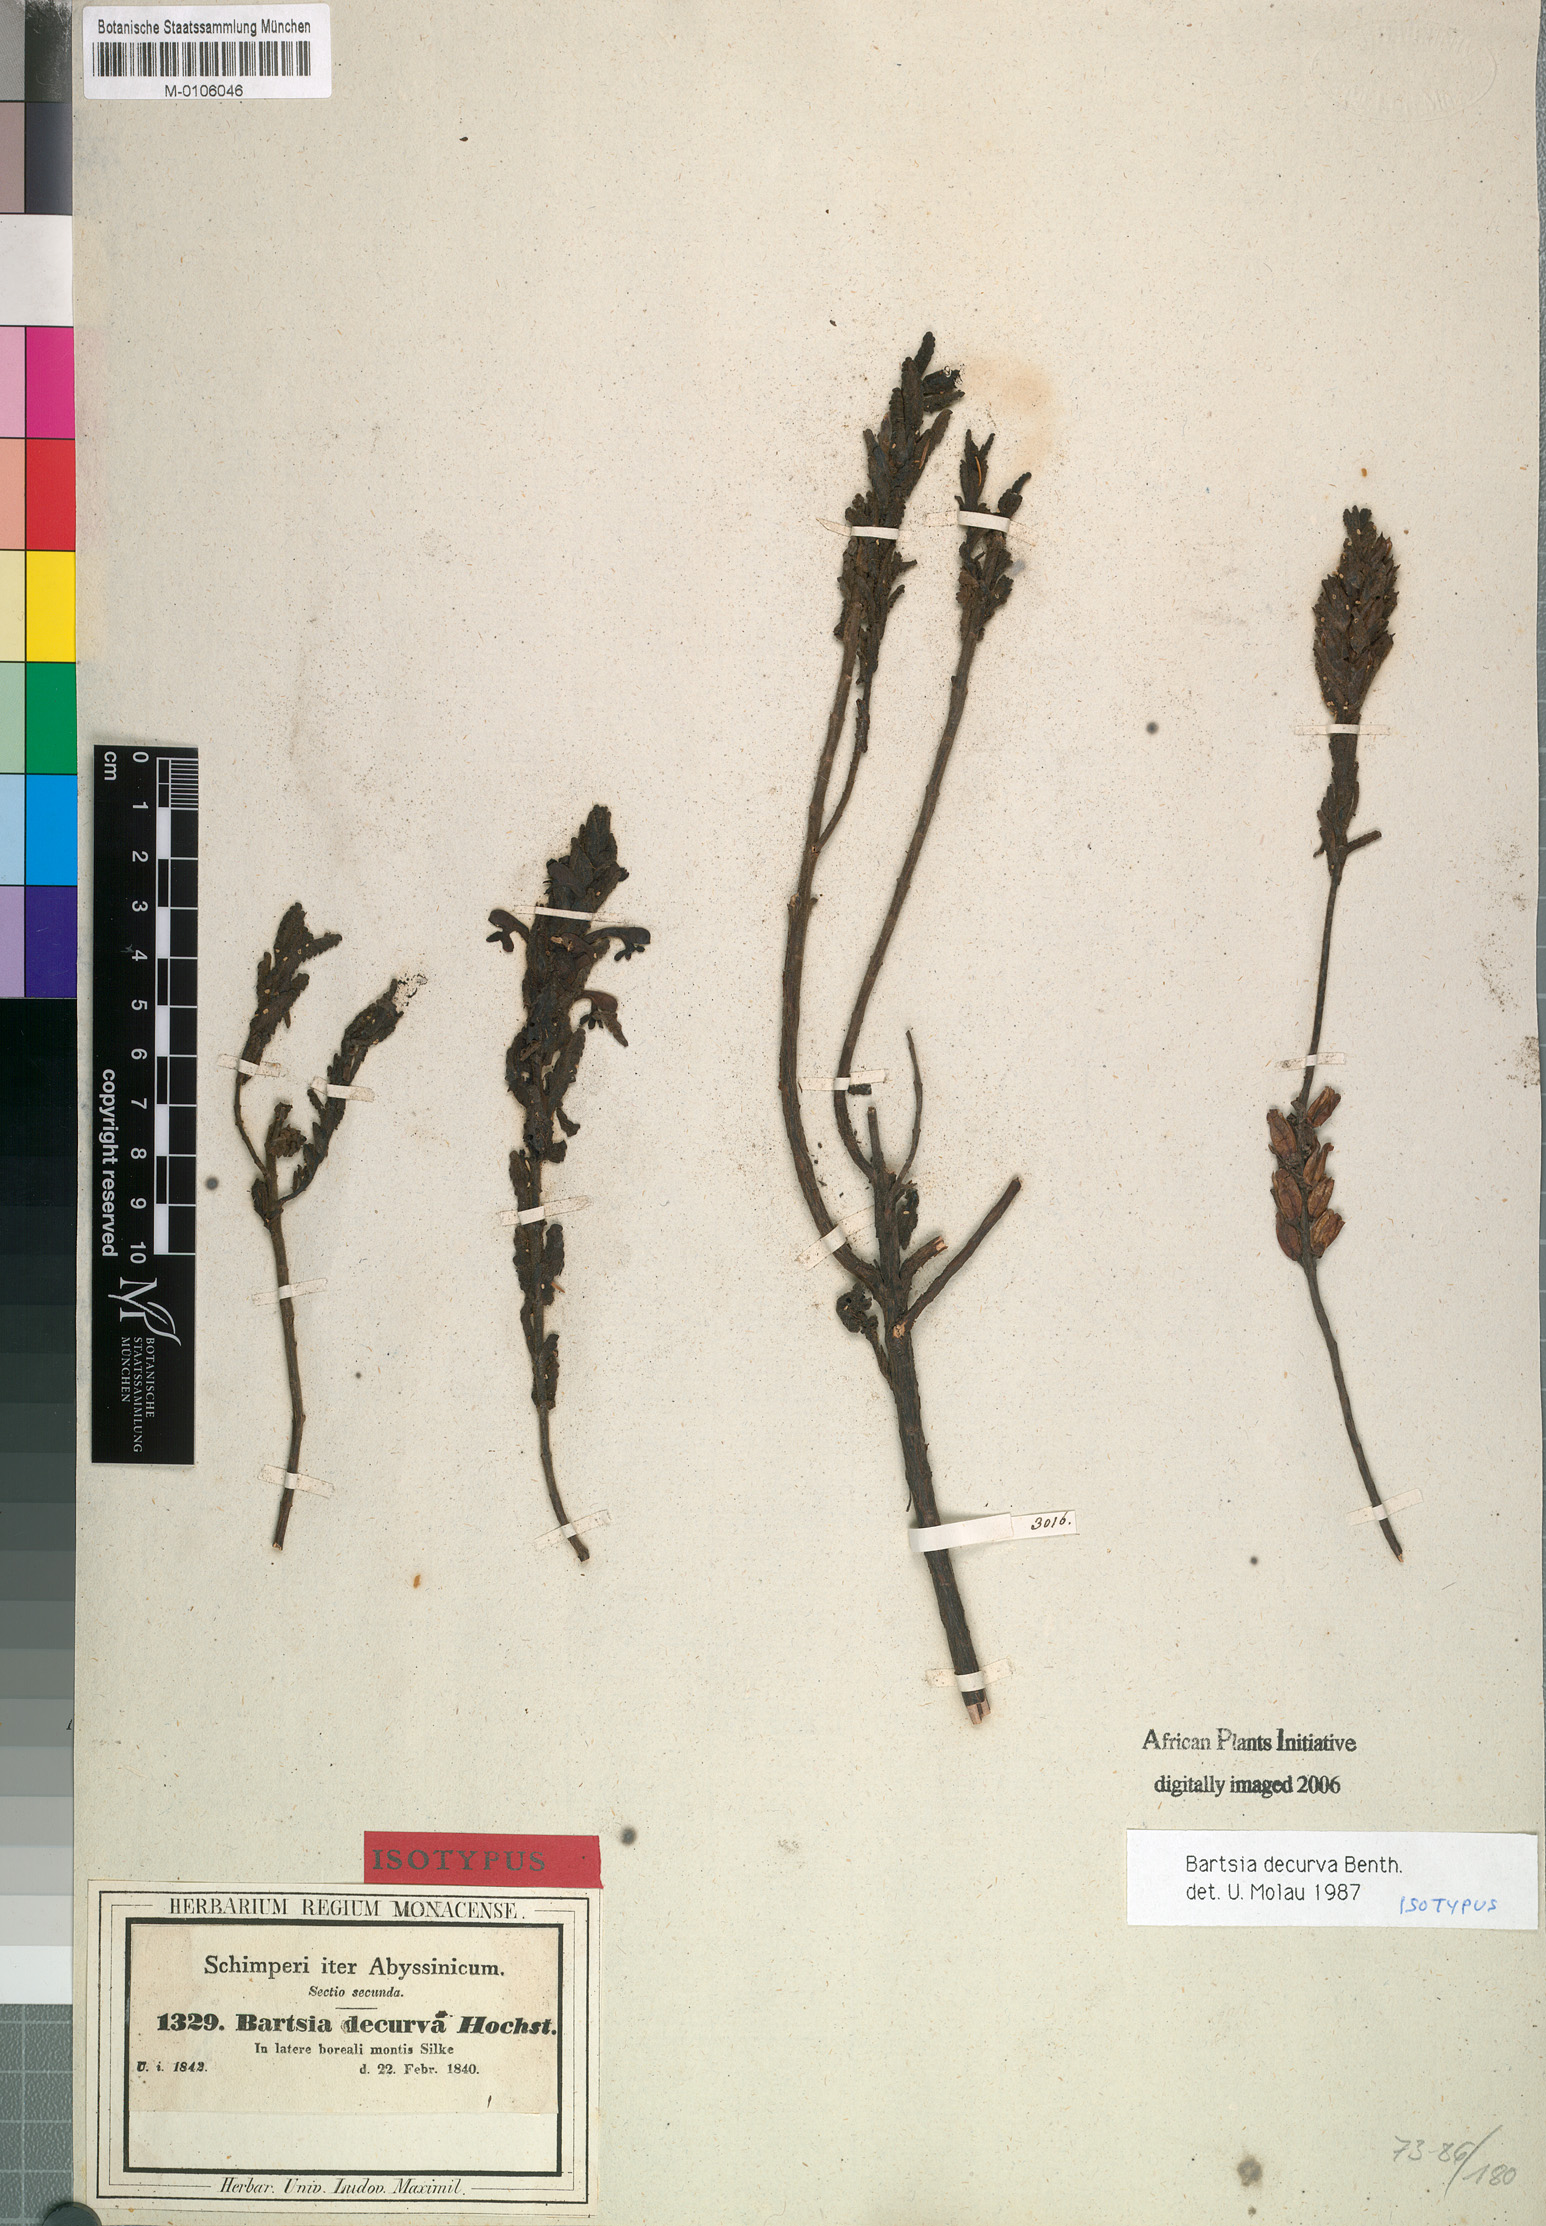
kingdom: Plantae
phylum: Tracheophyta
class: Magnoliopsida
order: Lamiales
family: Orobanchaceae
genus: Hedbergia
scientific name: Hedbergia decurva
